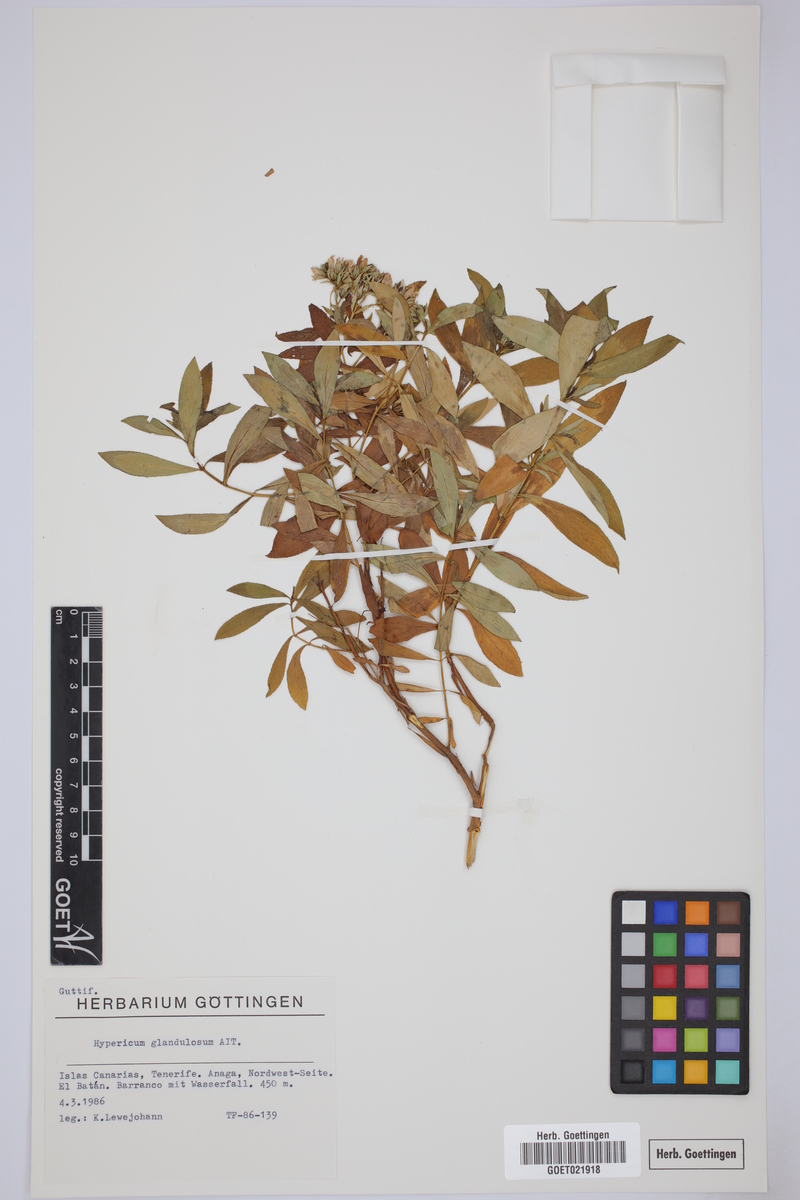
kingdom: Plantae
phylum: Tracheophyta
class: Magnoliopsida
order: Malpighiales
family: Hypericaceae
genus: Hypericum
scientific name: Hypericum glandulosum
